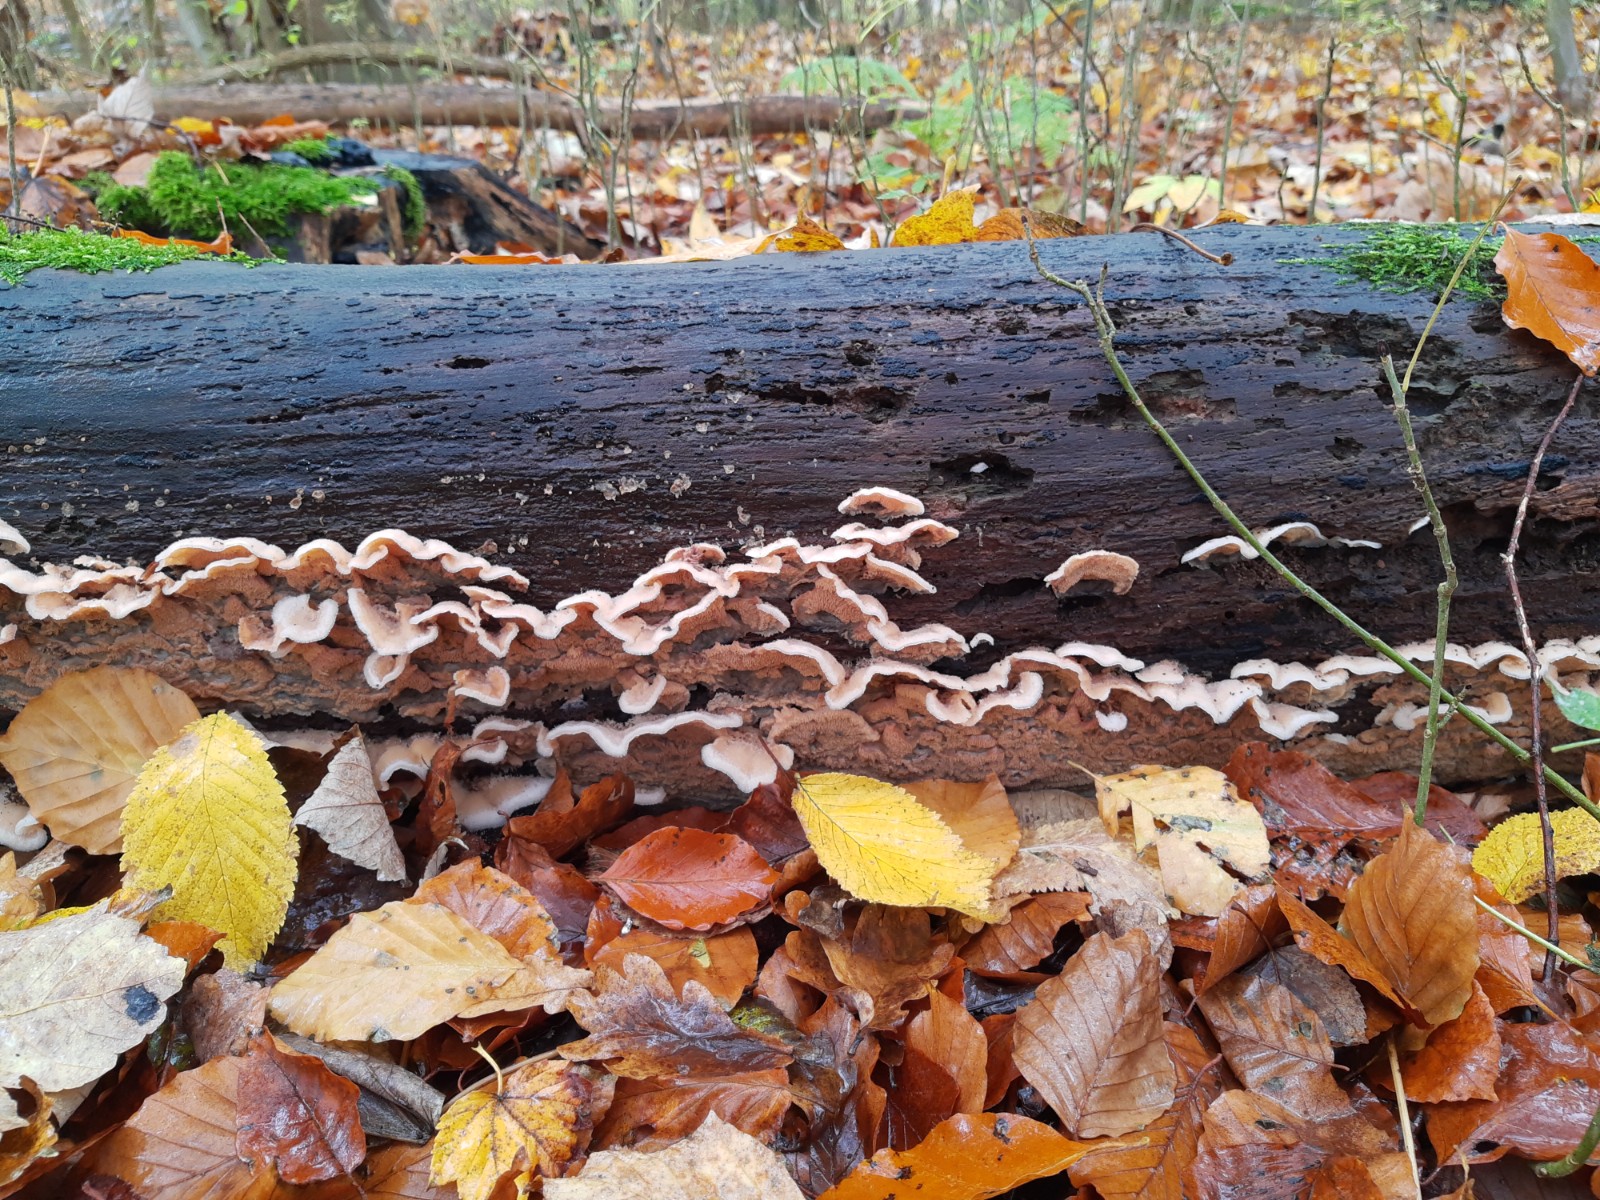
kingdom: Fungi
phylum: Basidiomycota
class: Agaricomycetes
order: Polyporales
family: Meruliaceae
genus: Phlebia
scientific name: Phlebia tremellosa
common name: bævrende åresvamp
